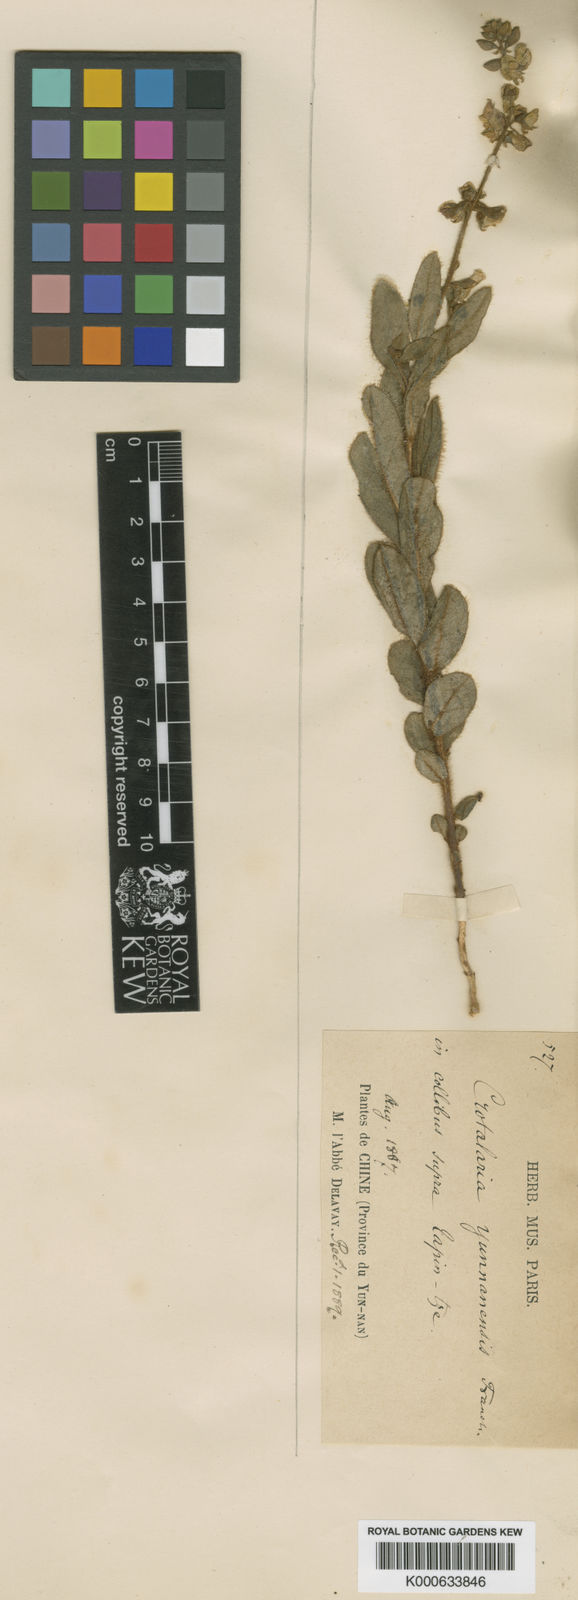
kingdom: Plantae
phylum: Tracheophyta
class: Magnoliopsida
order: Fabales
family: Fabaceae
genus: Crotalaria
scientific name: Crotalaria yunnanensis
